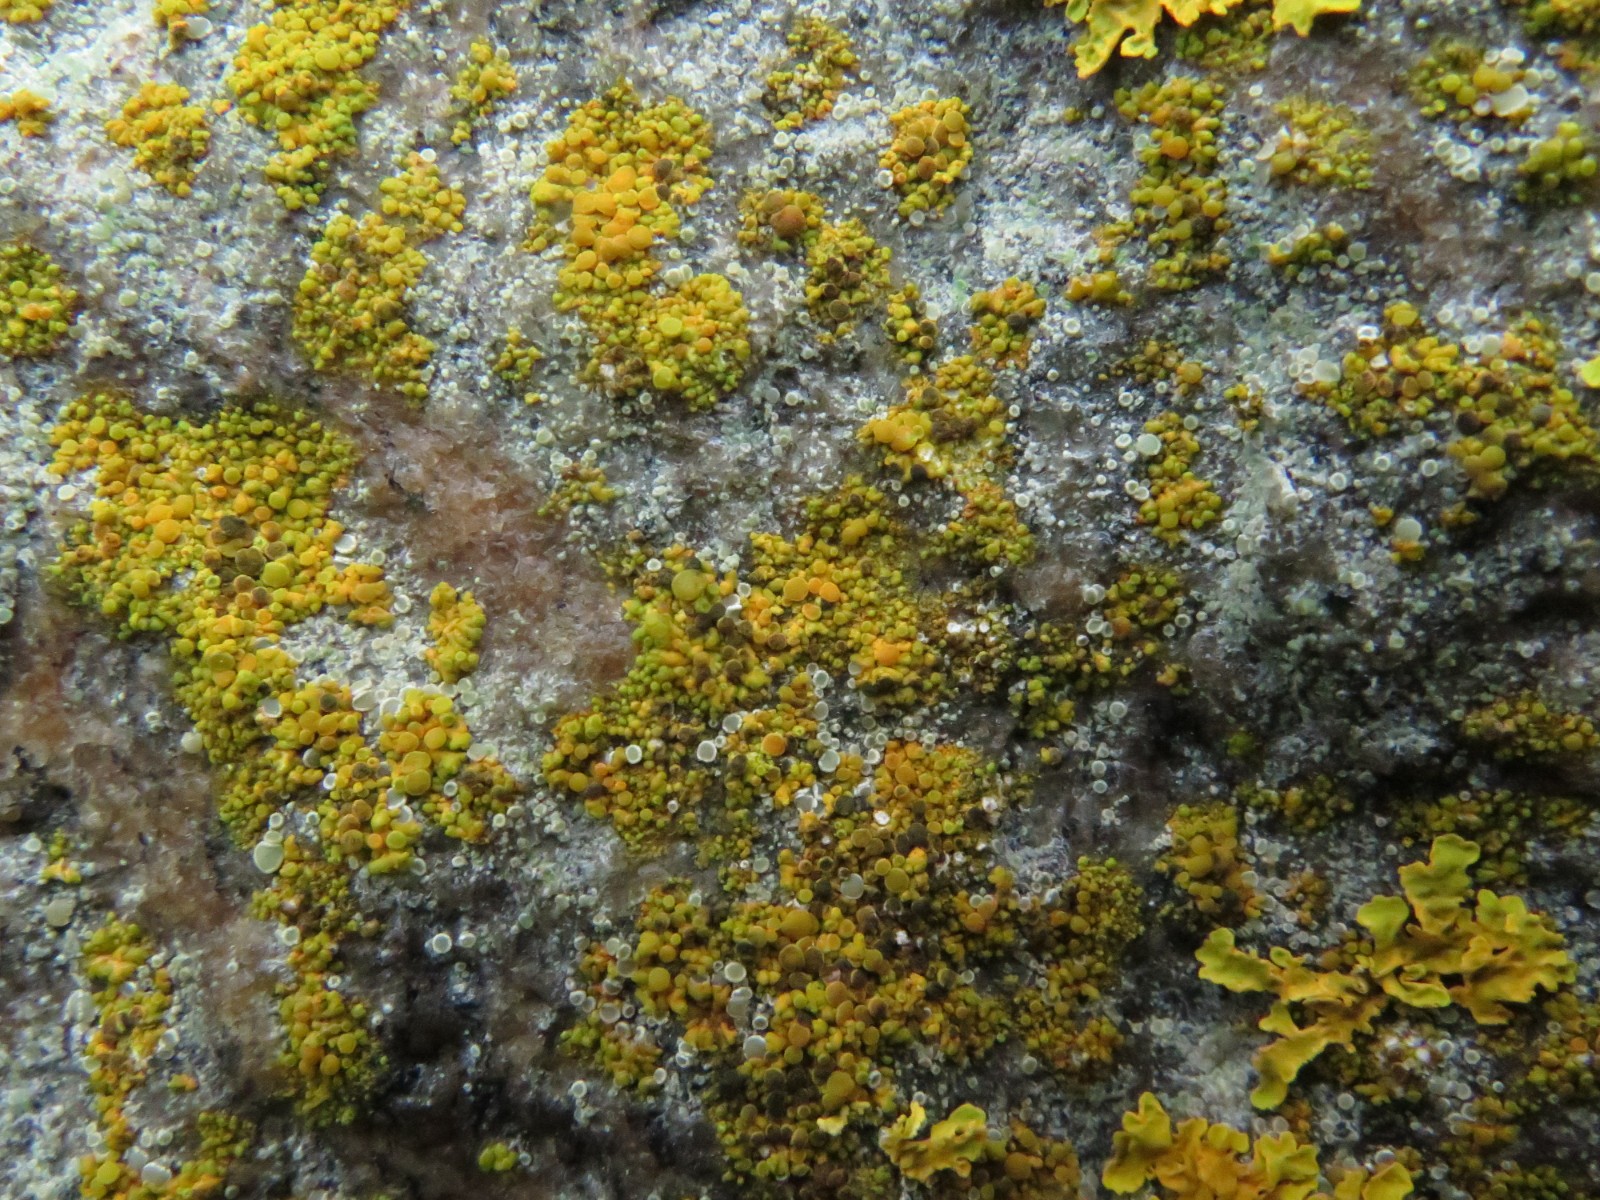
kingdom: Fungi
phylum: Ascomycota
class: Lecanoromycetes
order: Lecanorales
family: Lecanoraceae
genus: Polyozosia
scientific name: Polyozosia dispersa
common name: spredt kantskivelav
